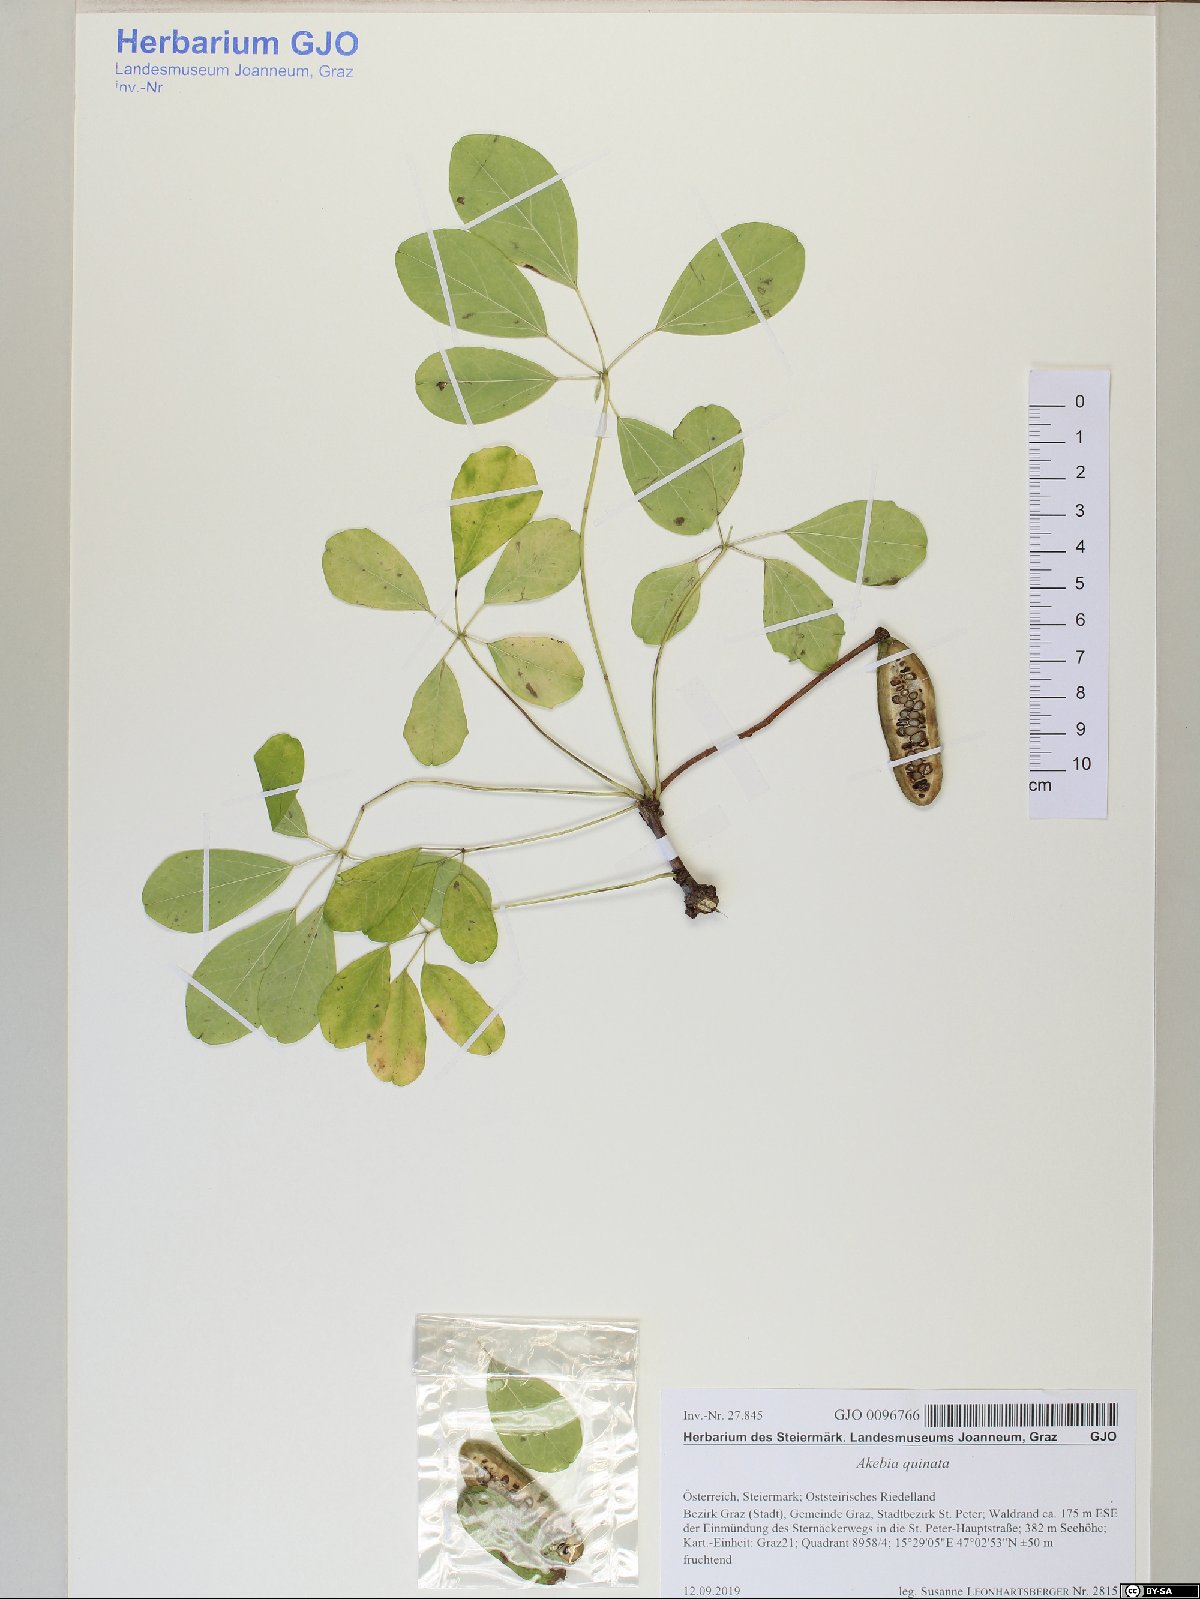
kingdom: Plantae
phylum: Tracheophyta
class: Magnoliopsida
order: Ranunculales
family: Lardizabalaceae
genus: Akebia
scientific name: Akebia quinata
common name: Five-leaf akebia
